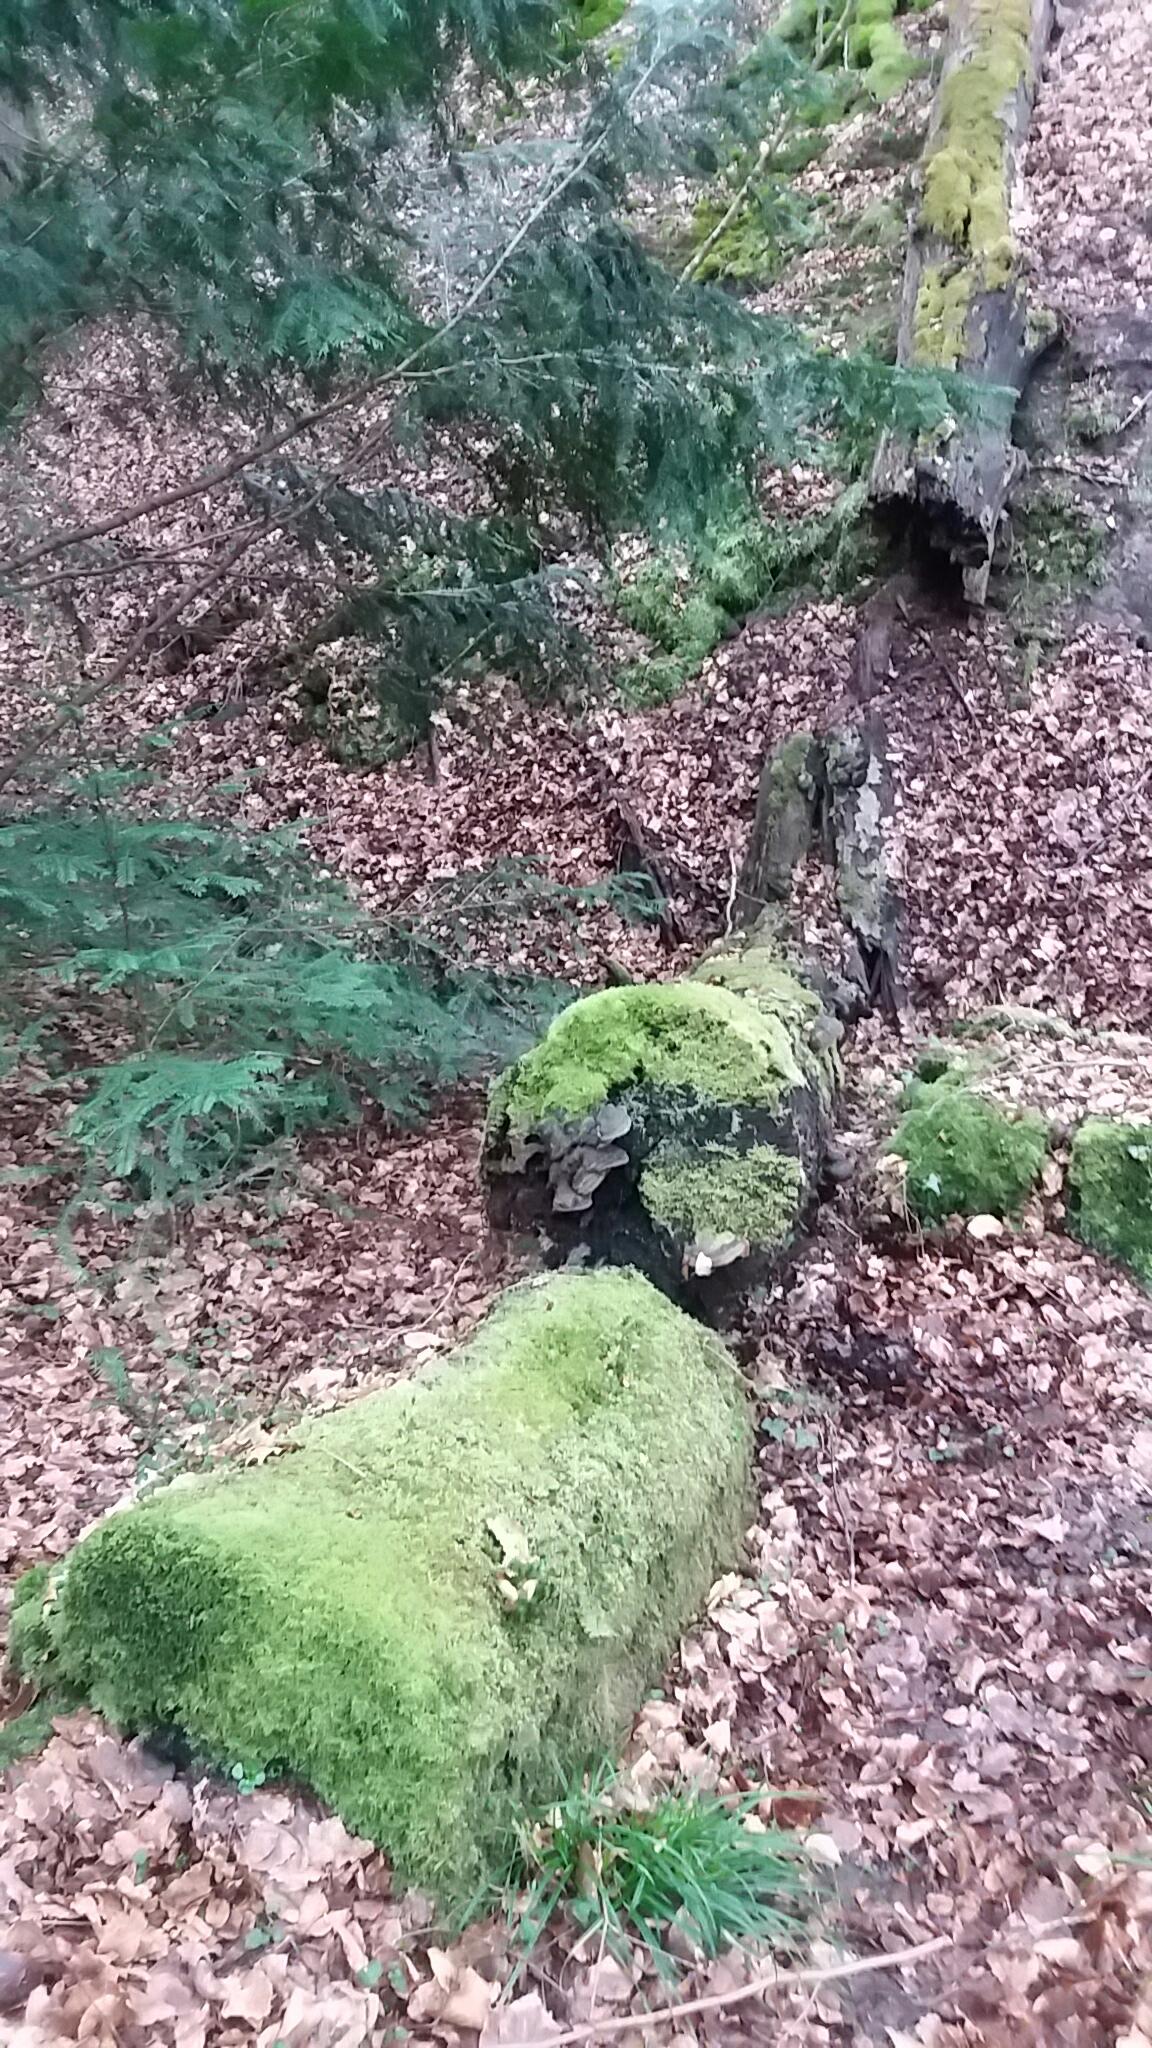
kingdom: Fungi
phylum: Basidiomycota
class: Agaricomycetes
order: Polyporales
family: Polyporaceae
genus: Fomes
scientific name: Fomes fomentarius
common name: tøndersvamp
